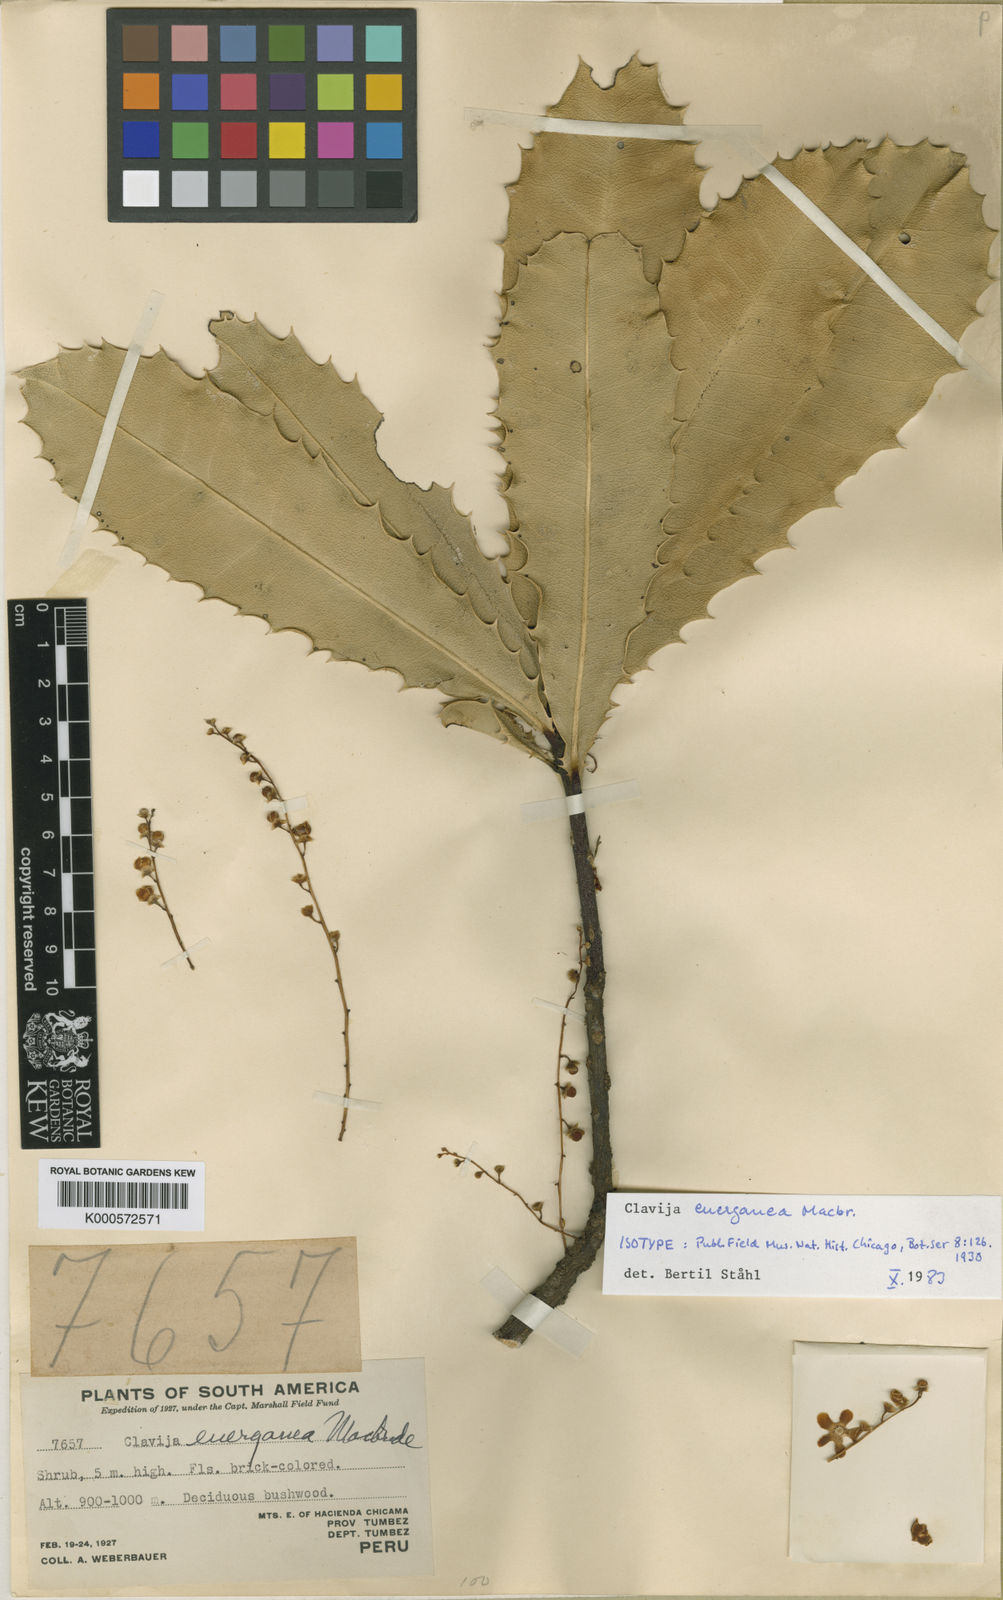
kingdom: Plantae
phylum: Tracheophyta
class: Magnoliopsida
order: Ericales
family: Primulaceae
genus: Clavija
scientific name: Clavija euerganea
